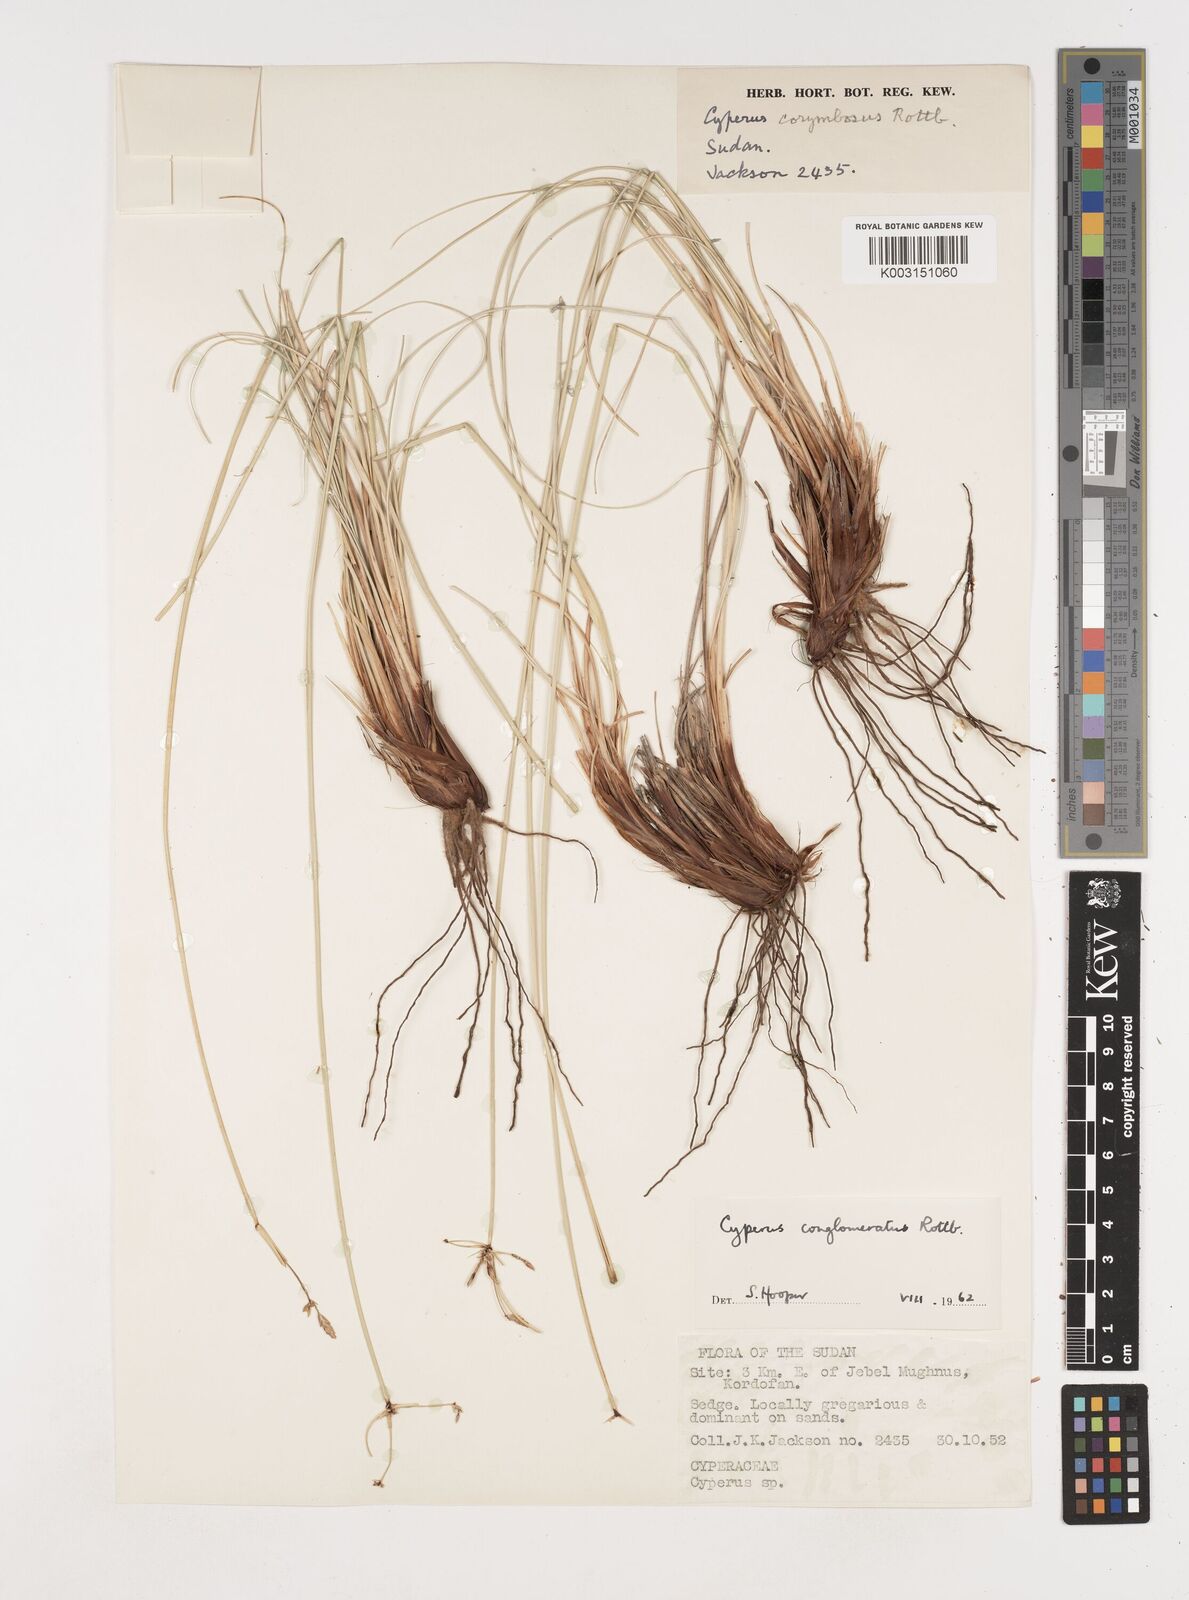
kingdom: Plantae
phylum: Tracheophyta
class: Liliopsida
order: Poales
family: Cyperaceae
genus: Cyperus
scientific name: Cyperus jeminicus
